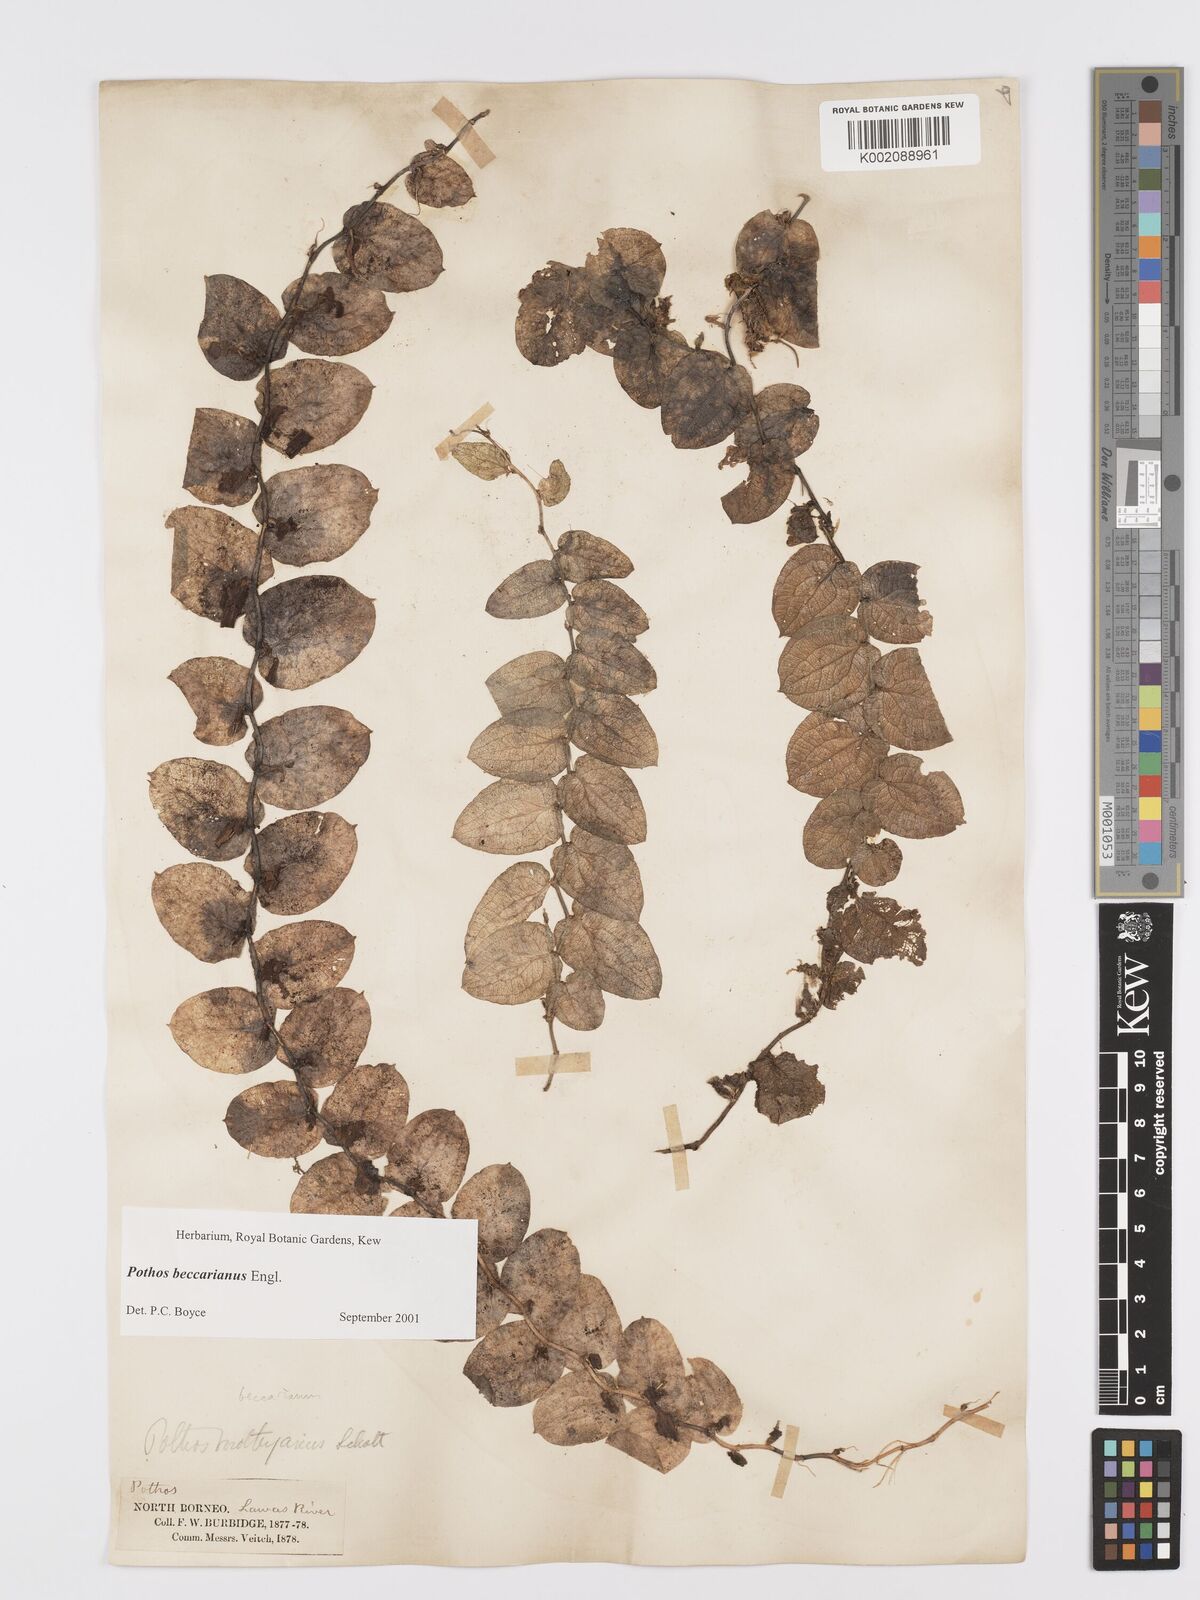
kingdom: Plantae
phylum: Tracheophyta
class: Liliopsida
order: Alismatales
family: Araceae
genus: Pothos
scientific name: Pothos beccarianus
